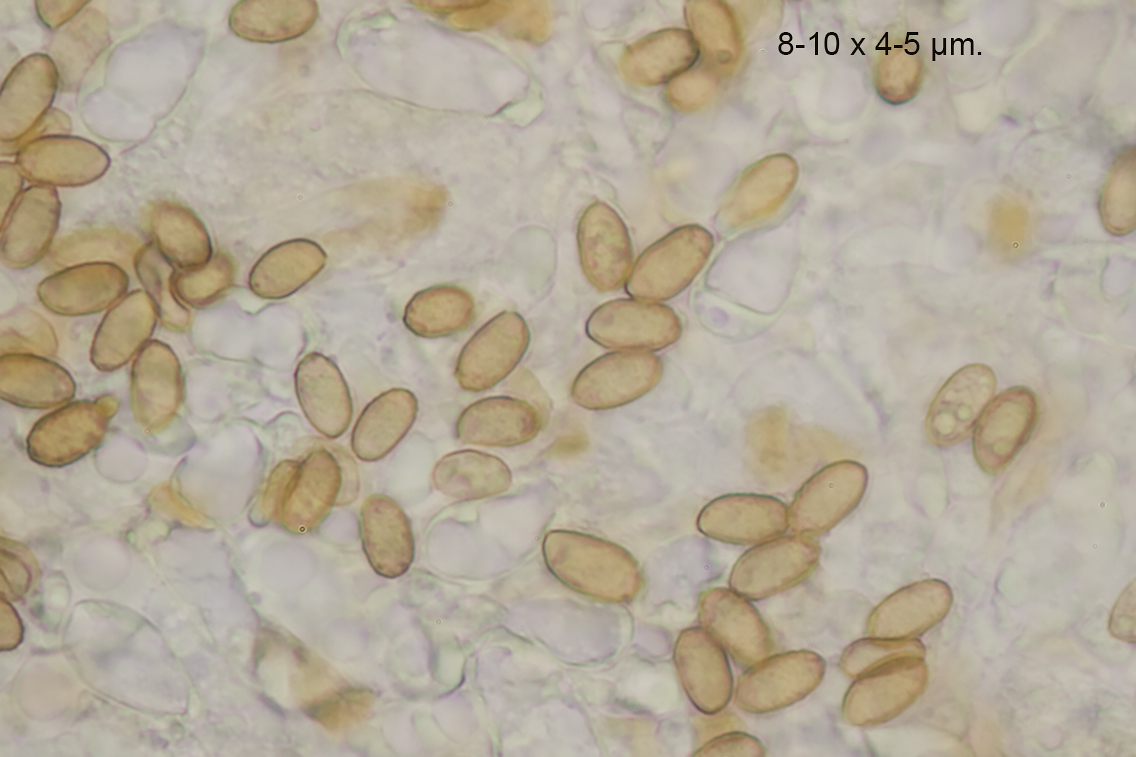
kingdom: Fungi
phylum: Basidiomycota
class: Agaricomycetes
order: Agaricales
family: Cortinariaceae
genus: Cortinarius
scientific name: Cortinarius decipiens
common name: blåsort slørhat
